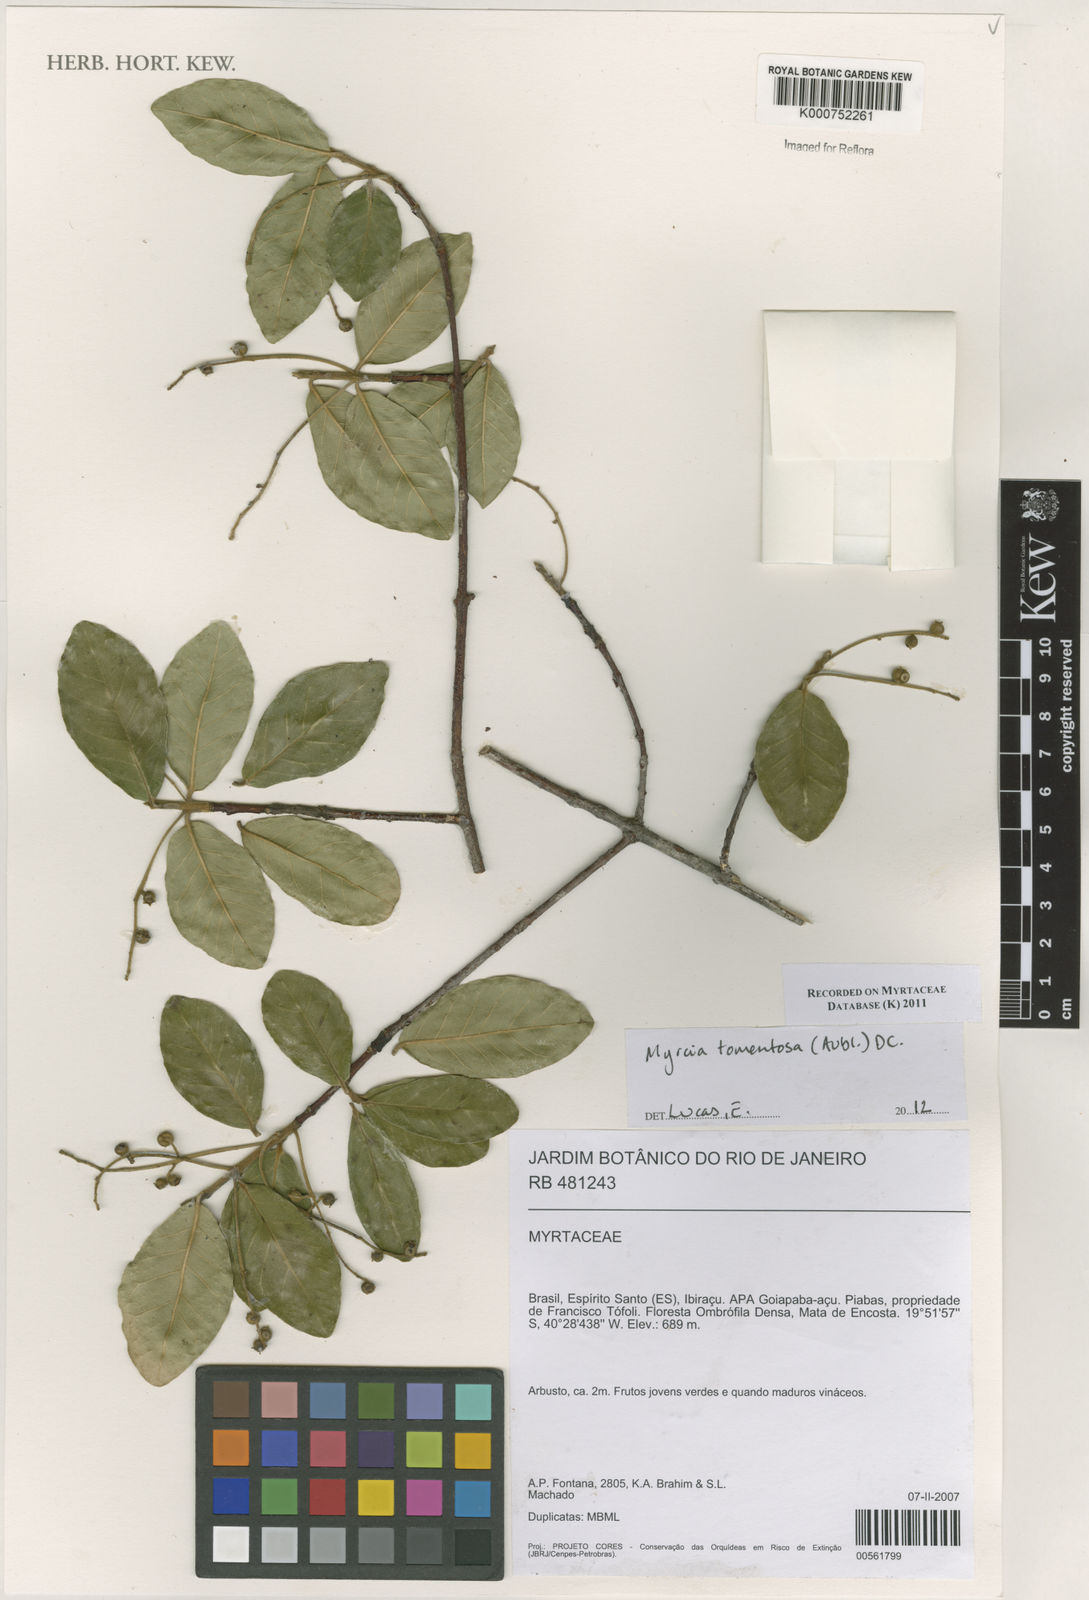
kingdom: Plantae
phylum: Tracheophyta
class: Magnoliopsida
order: Myrtales
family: Myrtaceae
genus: Myrcia
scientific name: Myrcia tomentosa
